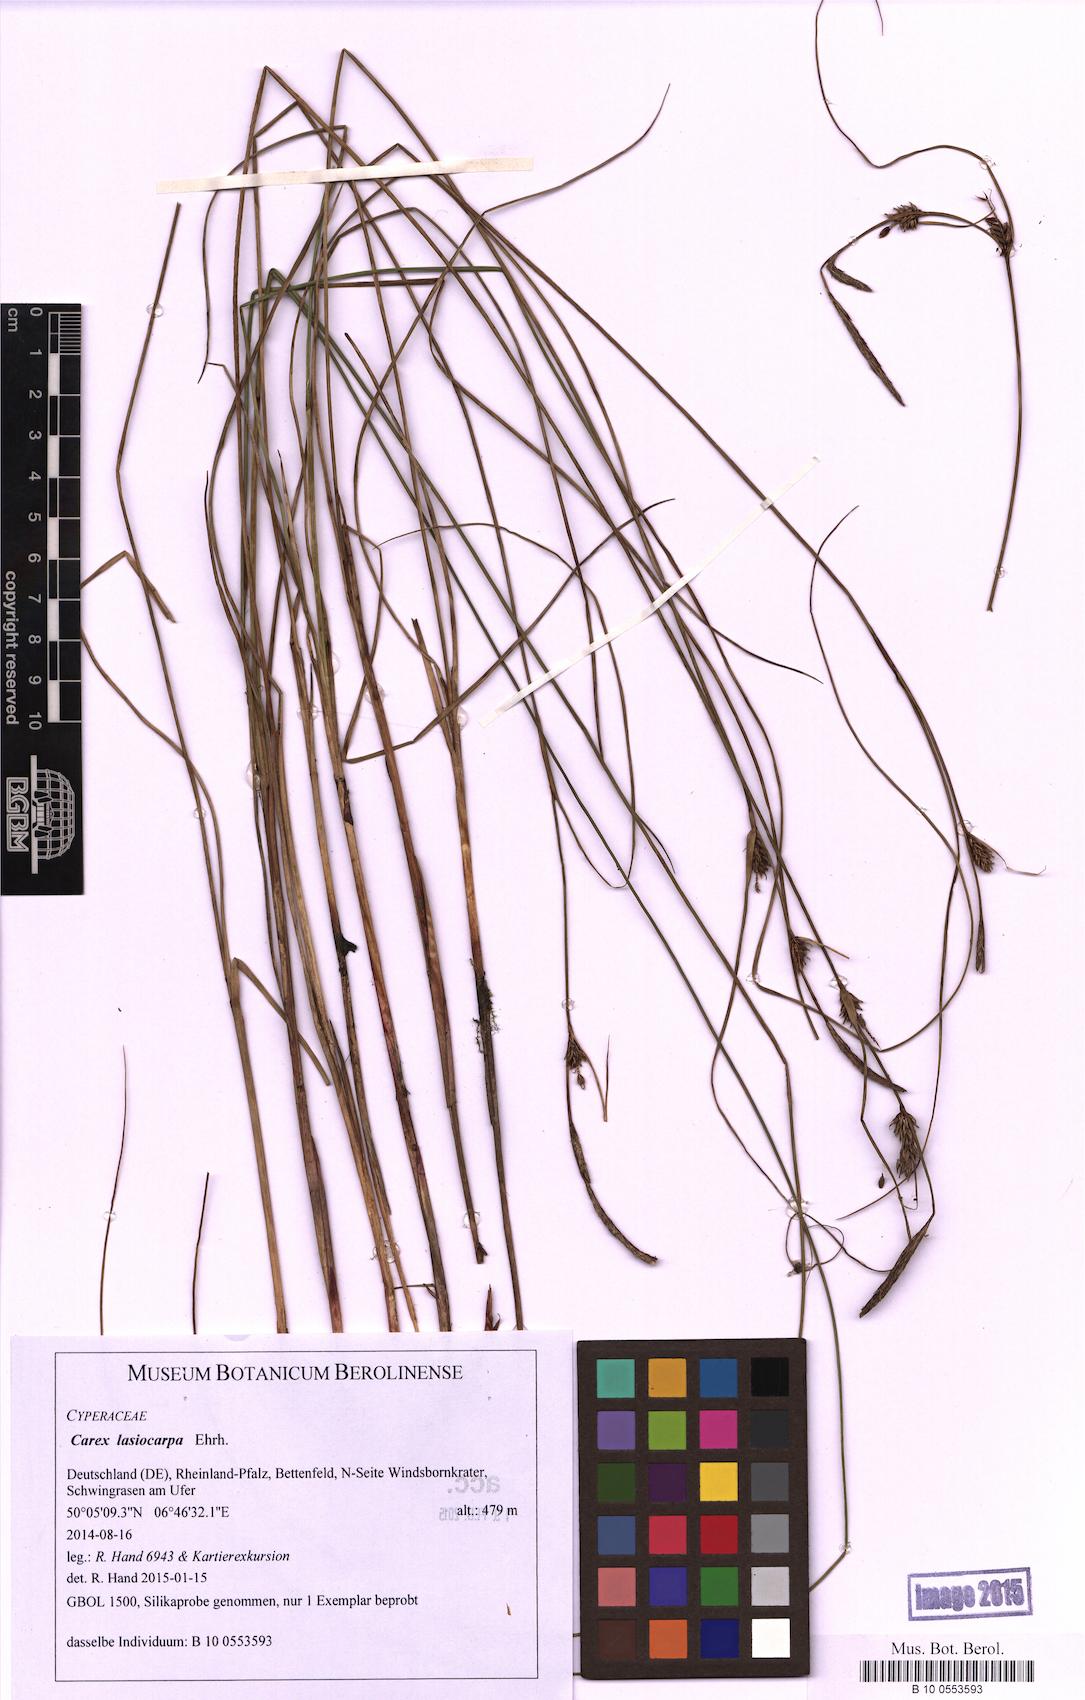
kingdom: Plantae
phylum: Tracheophyta
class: Liliopsida
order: Poales
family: Cyperaceae
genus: Carex
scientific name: Carex lasiocarpa
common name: Slender sedge
